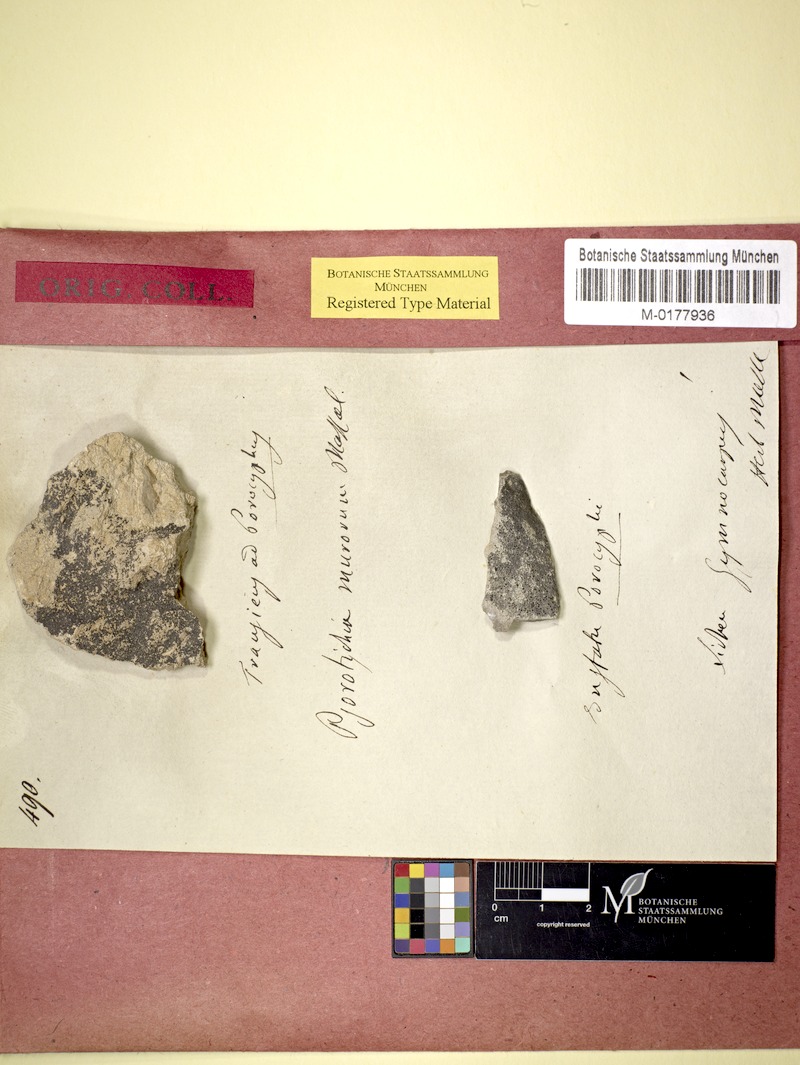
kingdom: Fungi
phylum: Ascomycota
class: Lichinomycetes
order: Lichinales
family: Lichinaceae
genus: Psorotichia
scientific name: Psorotichia murorum
